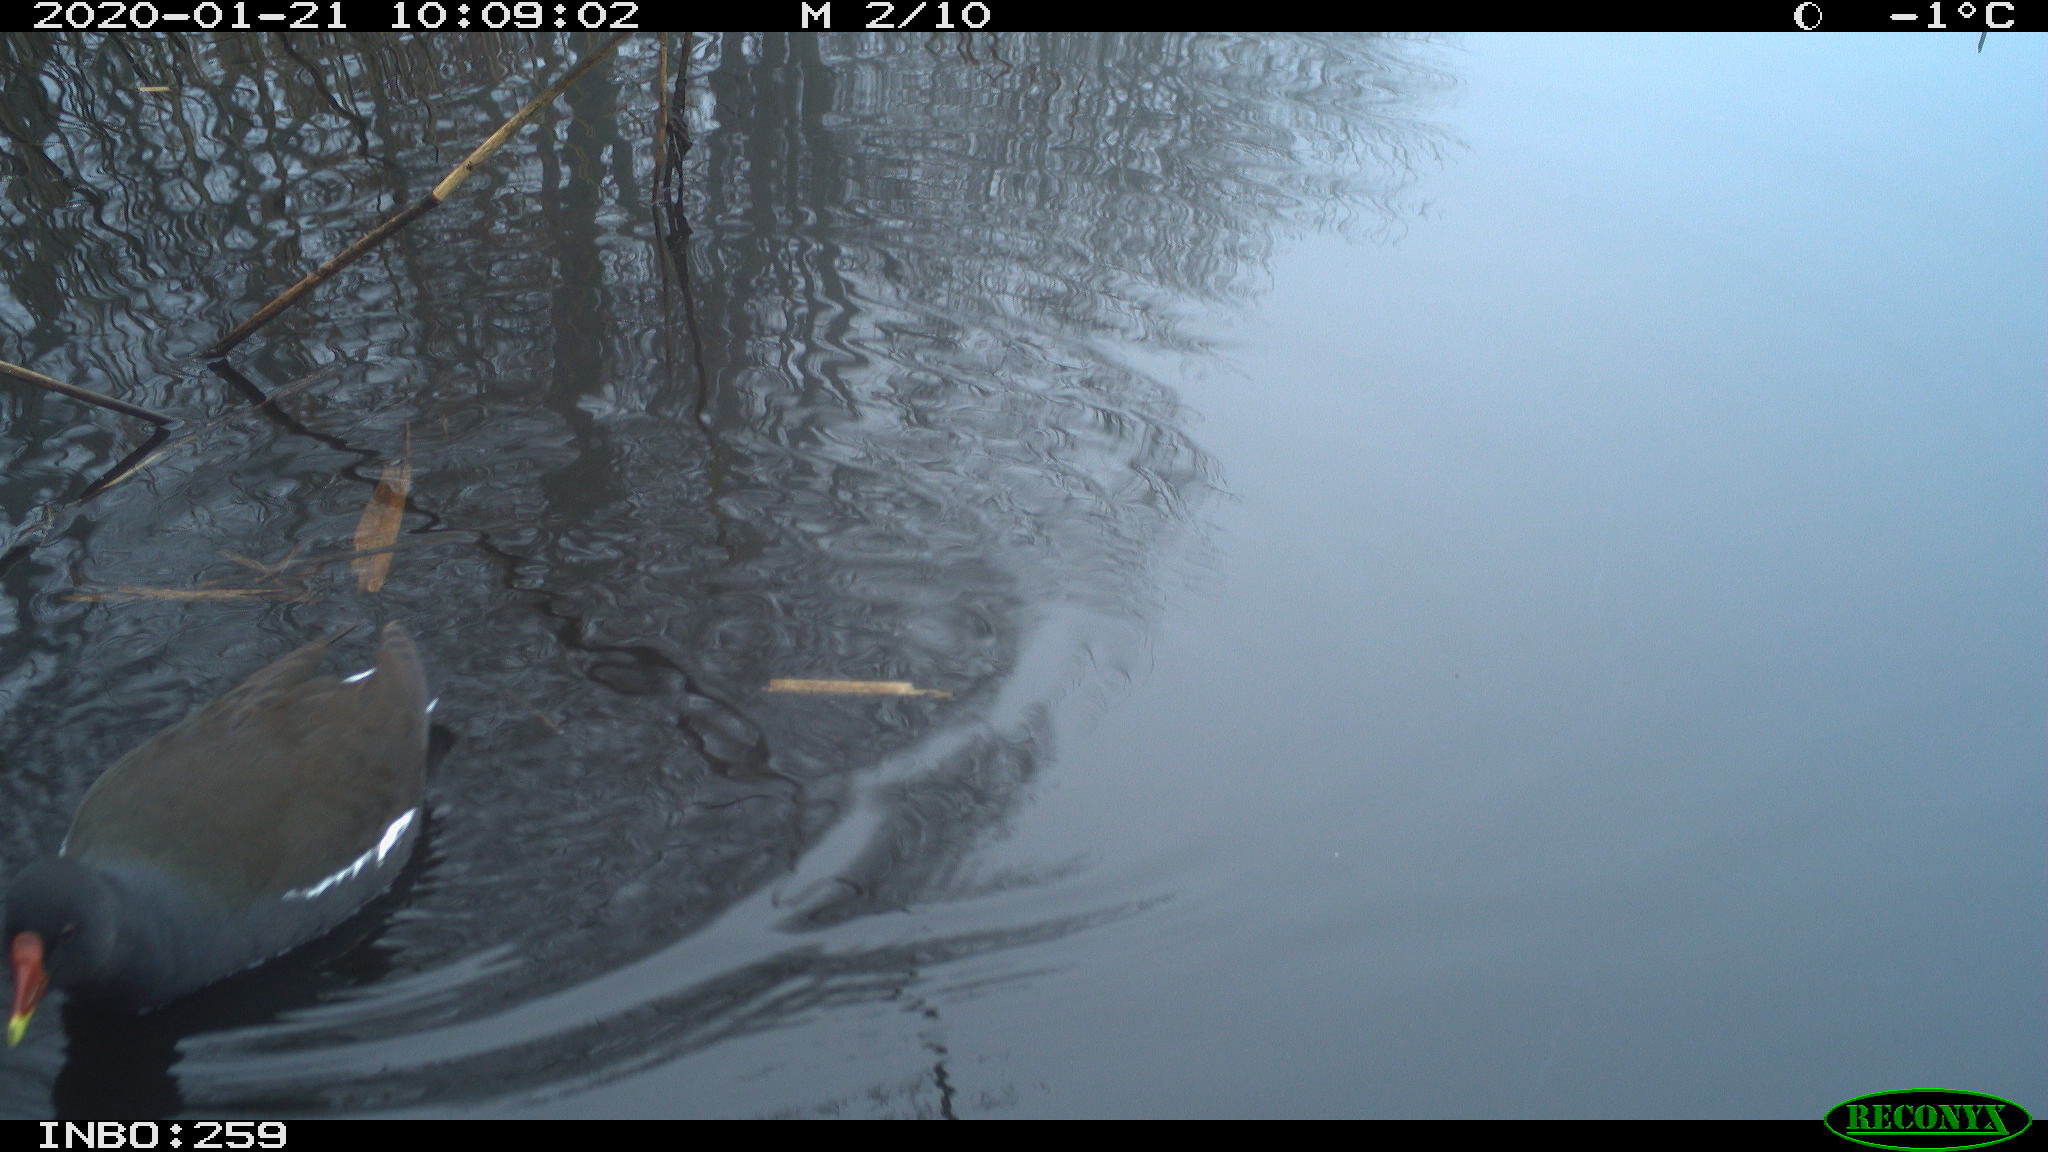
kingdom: Animalia
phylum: Chordata
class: Aves
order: Gruiformes
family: Rallidae
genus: Gallinula
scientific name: Gallinula chloropus
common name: Common moorhen
